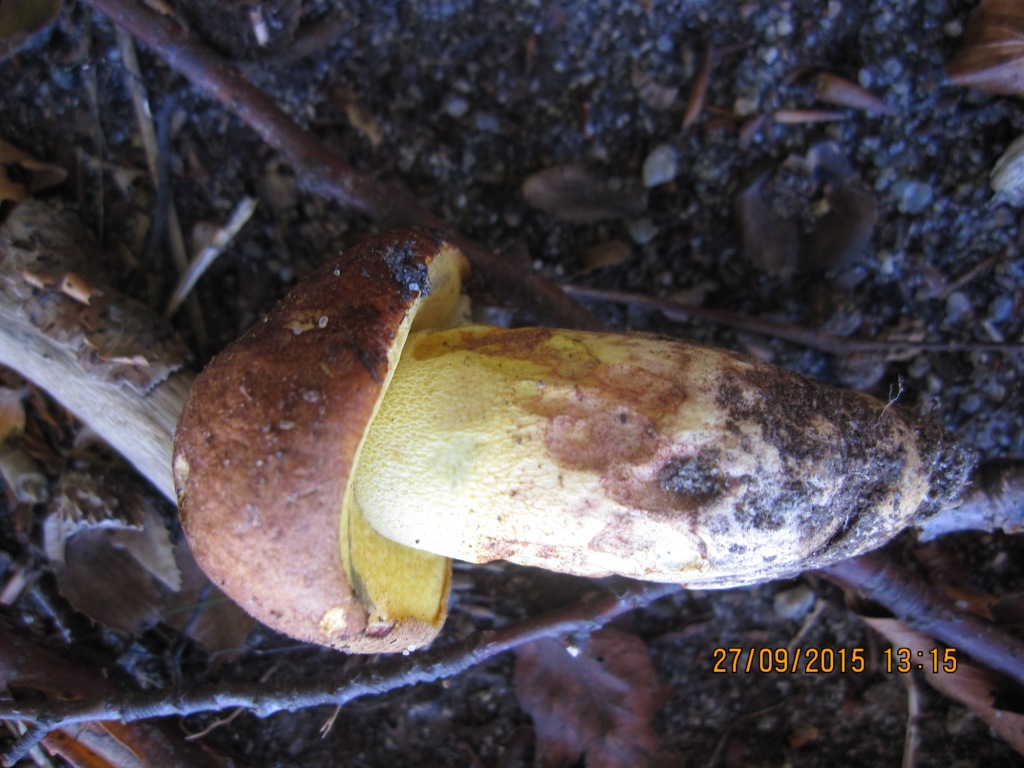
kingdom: Fungi
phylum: Basidiomycota
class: Agaricomycetes
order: Boletales
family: Boletaceae
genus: Butyriboletus
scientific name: Butyriboletus appendiculatus
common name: tenstokket rørhat
